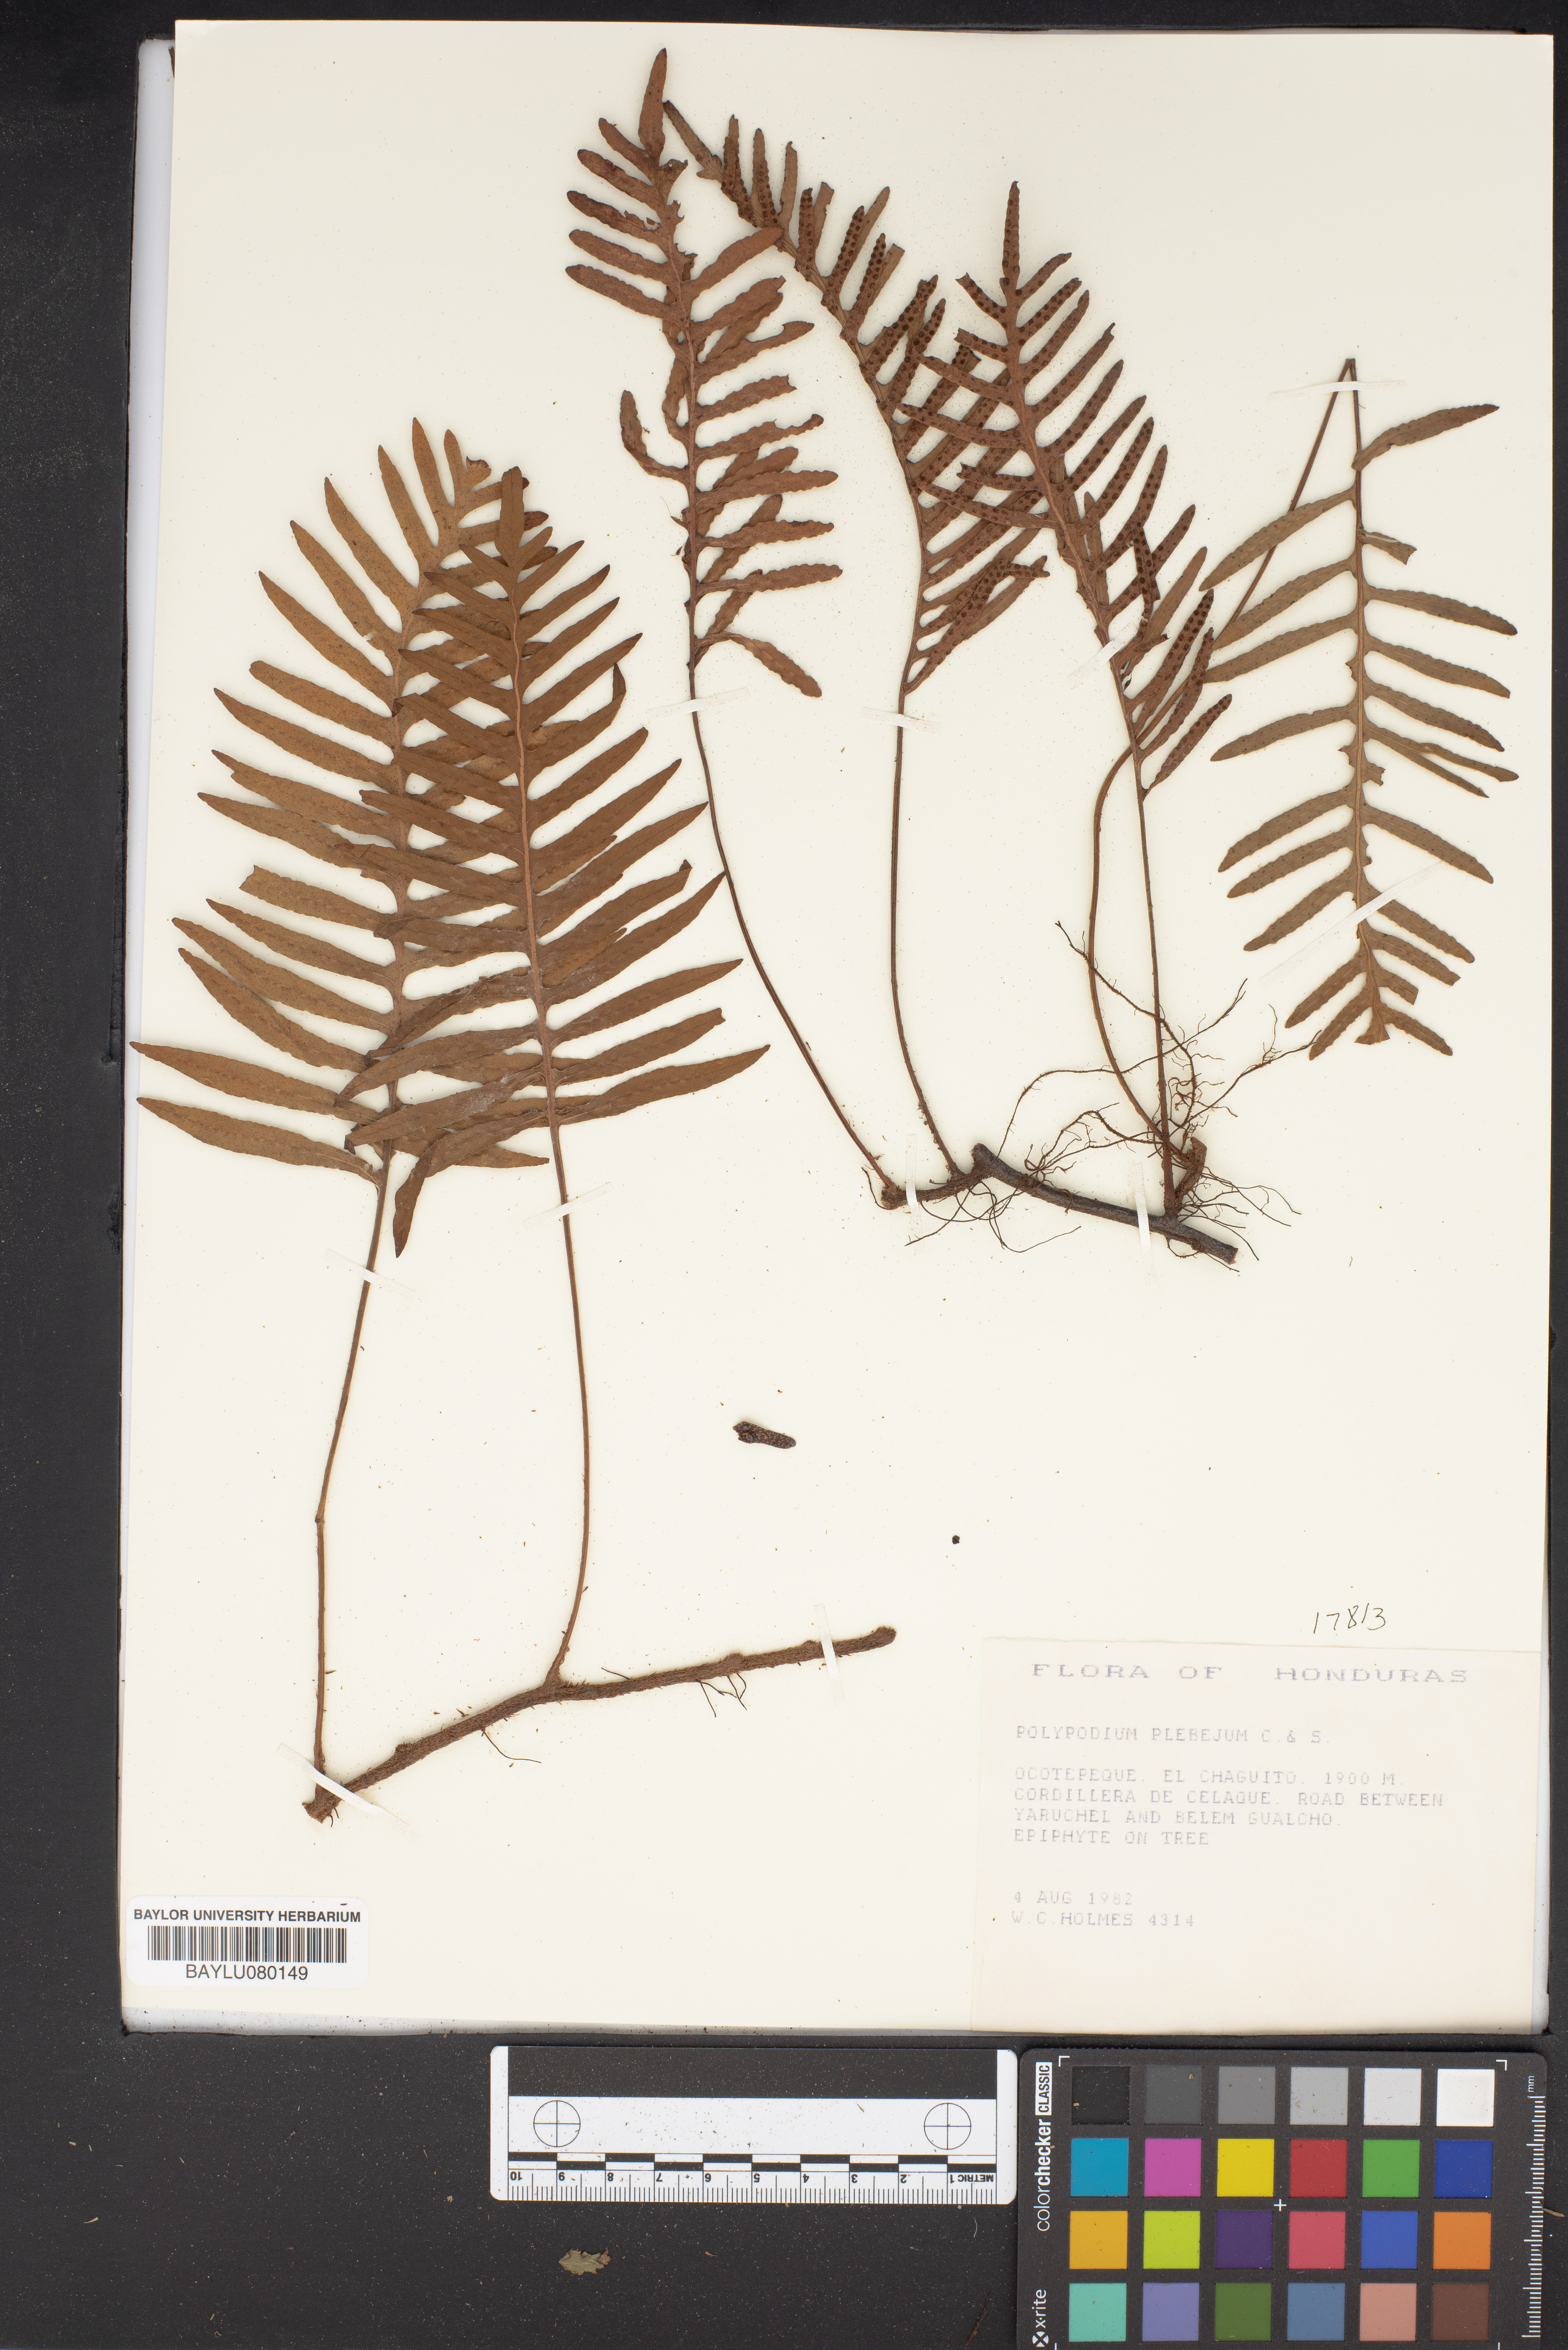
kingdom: Plantae
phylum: Tracheophyta
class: Polypodiopsida
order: Polypodiales
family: Polypodiaceae
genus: Pleopeltis
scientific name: Pleopeltis plebeia
